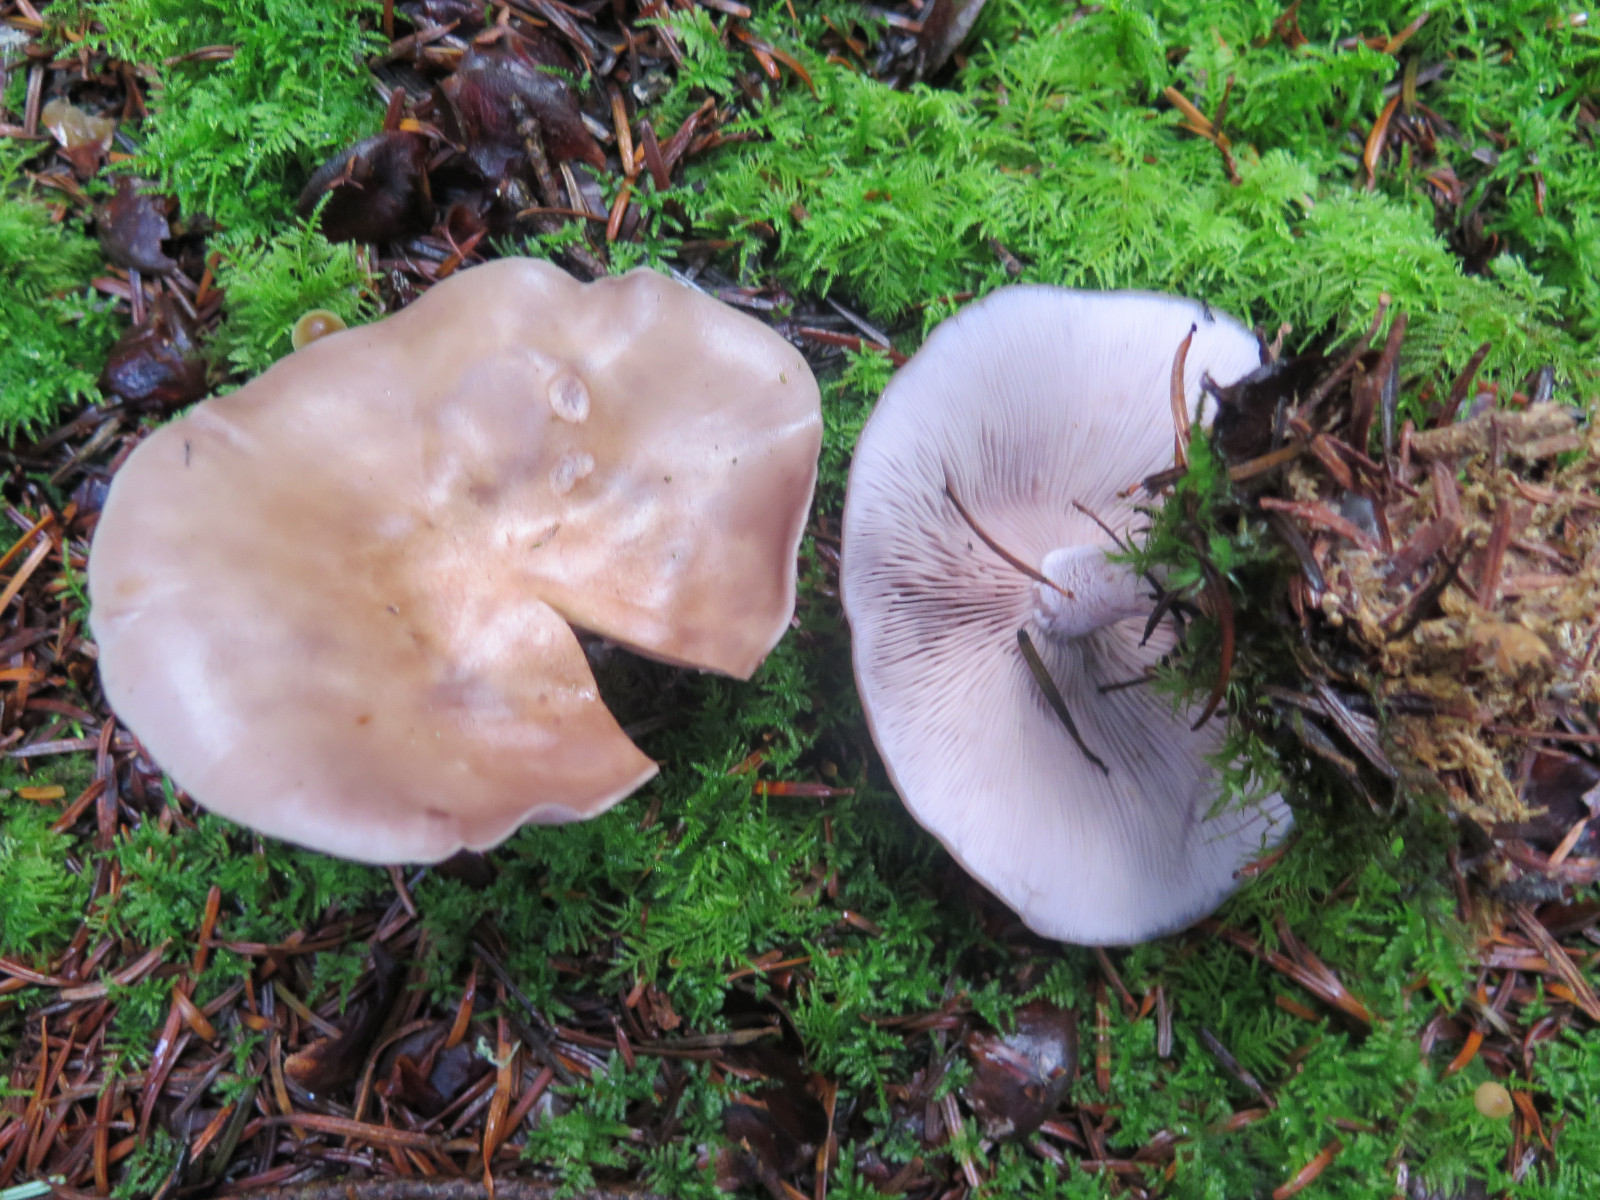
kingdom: Fungi
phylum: Basidiomycota
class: Agaricomycetes
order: Agaricales
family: Tricholomataceae
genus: Lepista
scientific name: Lepista nuda
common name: violet hekseringshat
